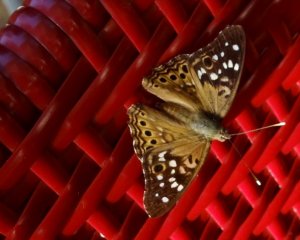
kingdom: Animalia
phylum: Arthropoda
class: Insecta
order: Lepidoptera
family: Nymphalidae
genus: Asterocampa
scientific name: Asterocampa celtis
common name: Hackberry Emperor
